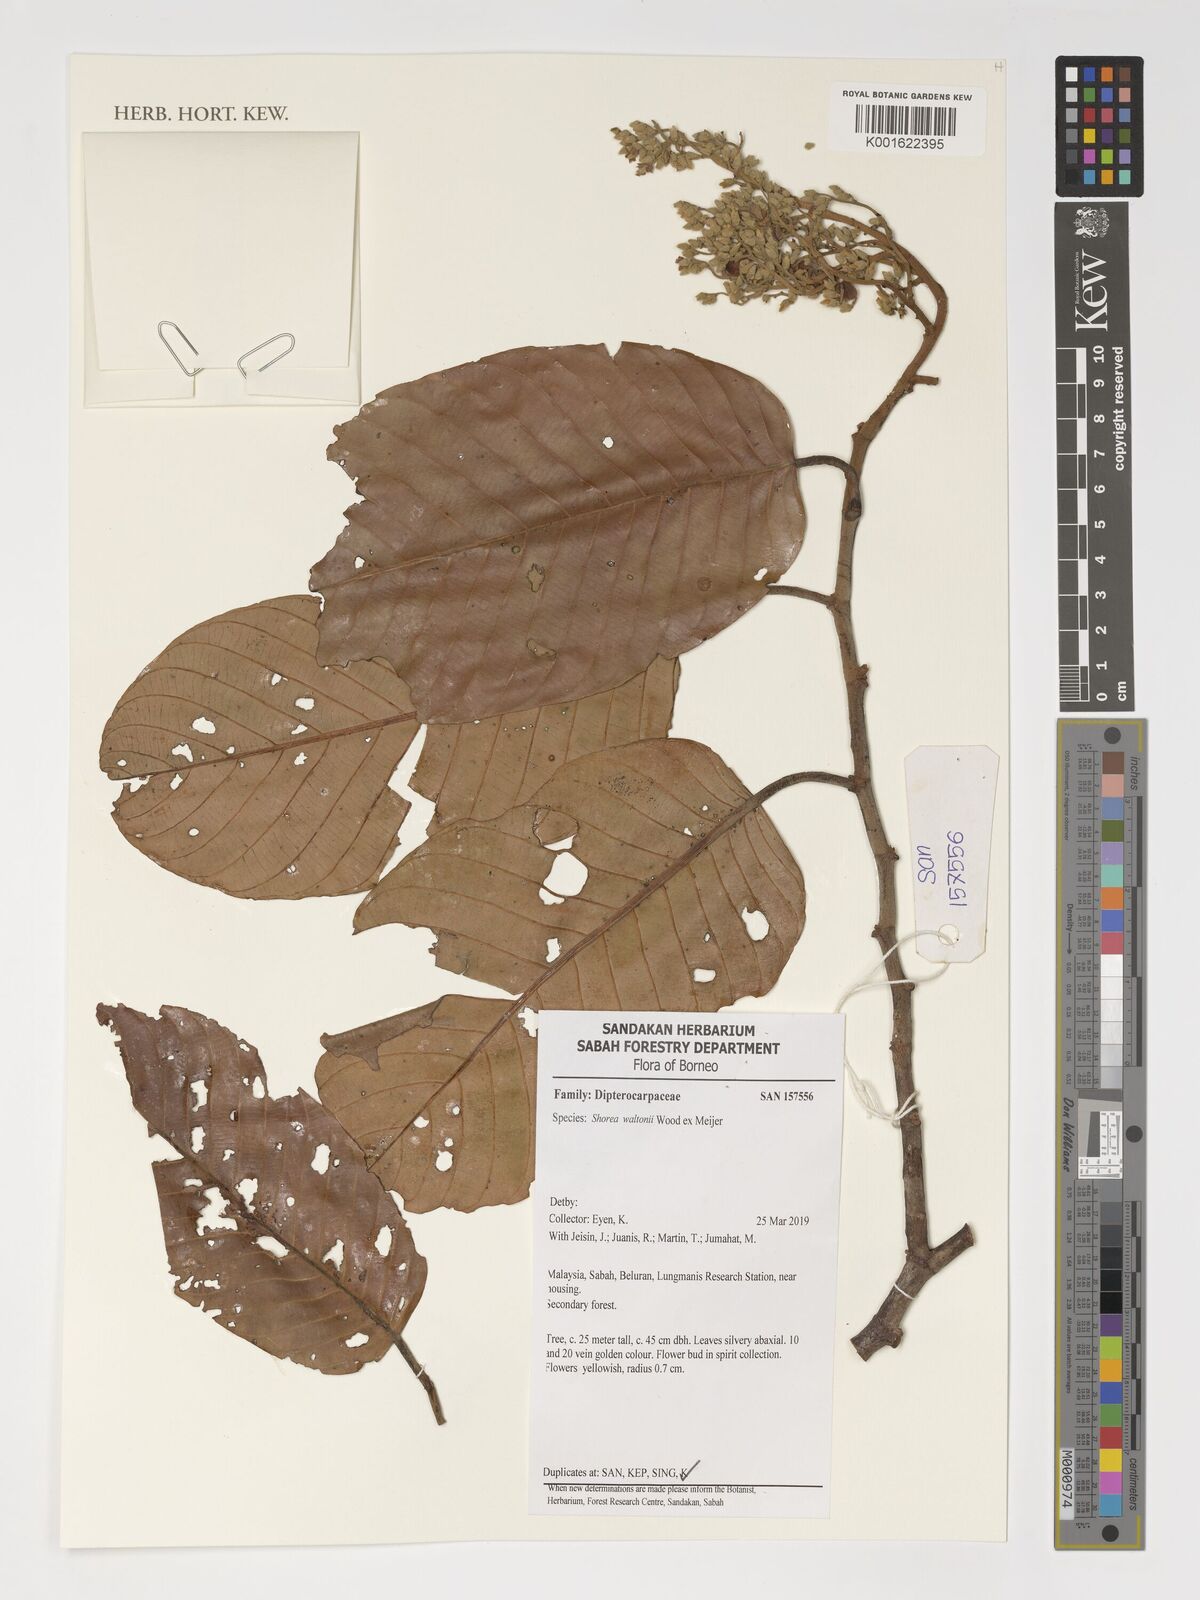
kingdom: Plantae
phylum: Tracheophyta
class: Magnoliopsida
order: Malvales
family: Dipterocarpaceae
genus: Shorea
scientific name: Shorea waltoni
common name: Red meranti
